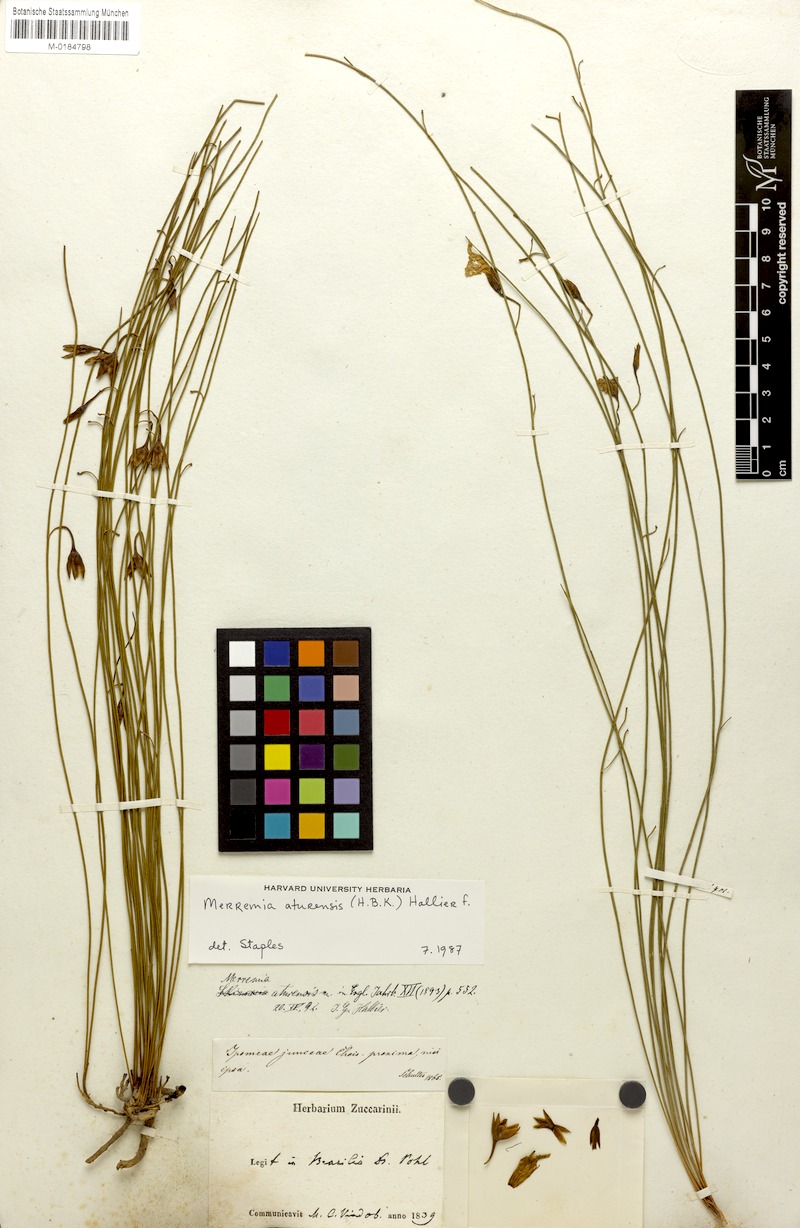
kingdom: Plantae
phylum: Tracheophyta
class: Magnoliopsida
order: Solanales
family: Convolvulaceae
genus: Distimake
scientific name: Distimake aturensis
